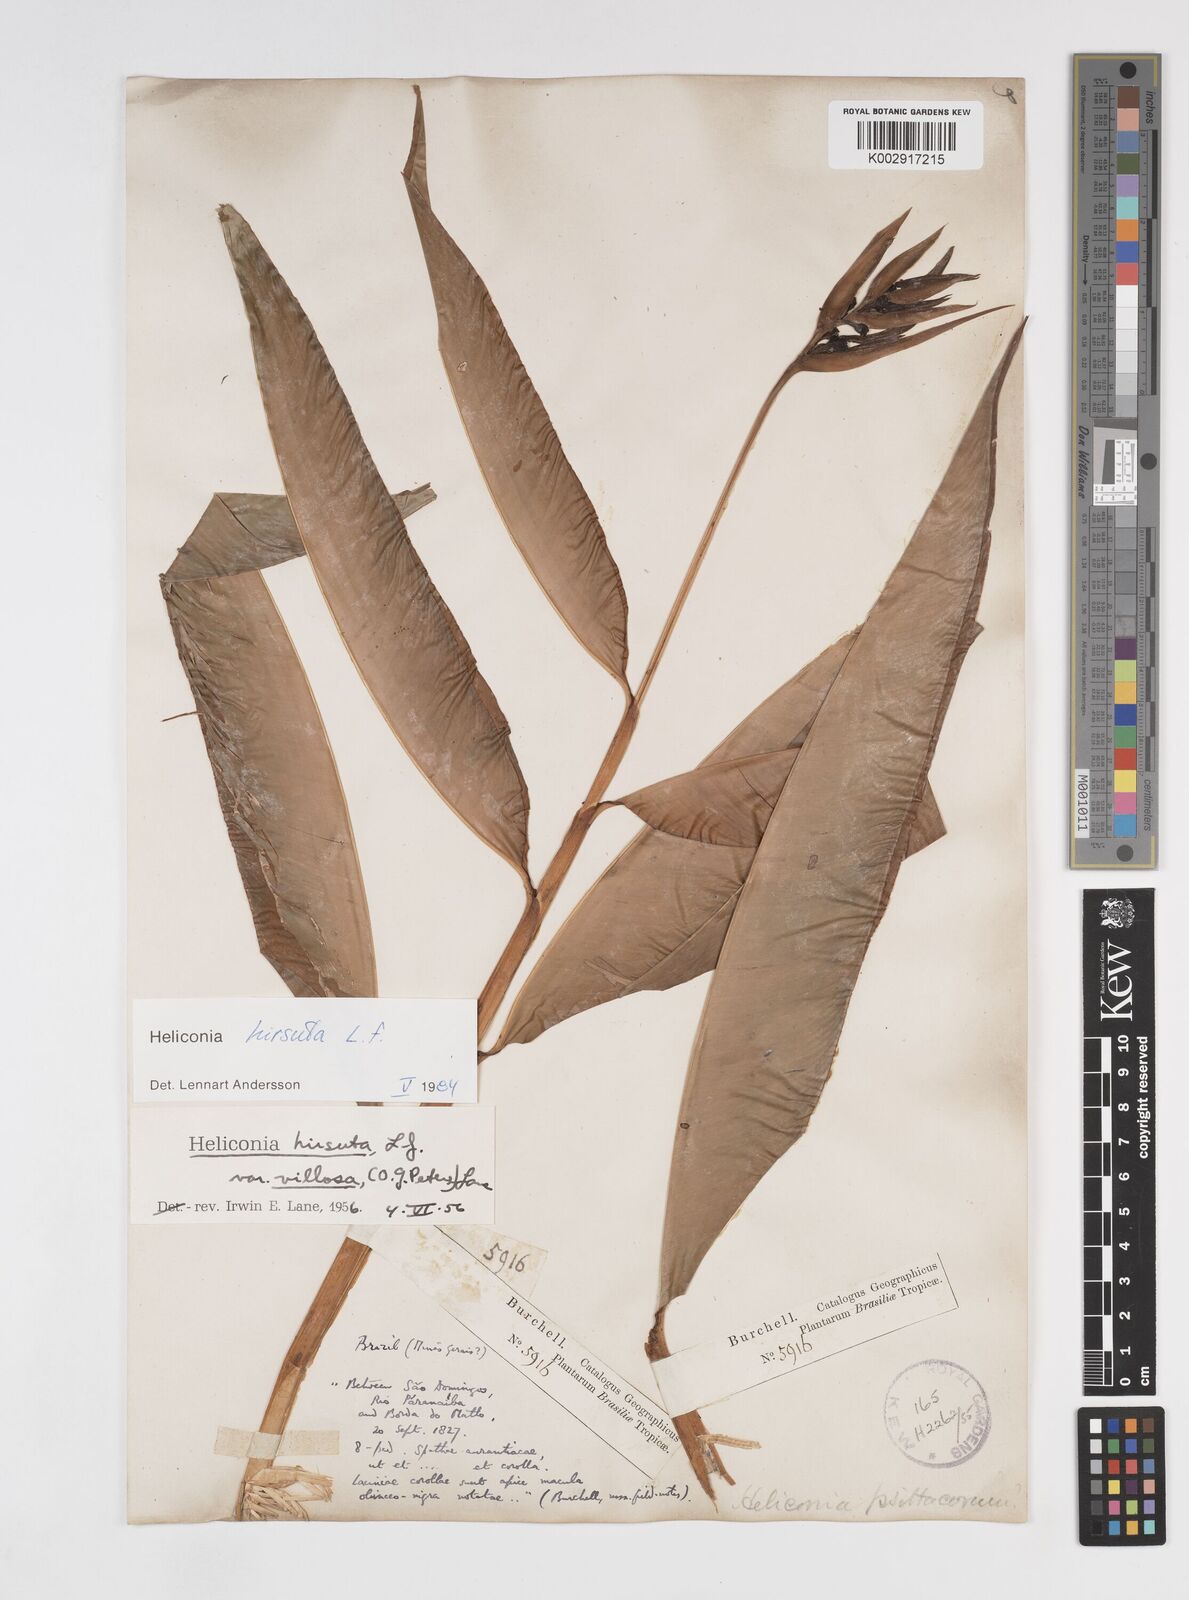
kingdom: Plantae
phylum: Tracheophyta
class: Liliopsida
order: Zingiberales
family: Heliconiaceae
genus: Heliconia
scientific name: Heliconia hirsuta
